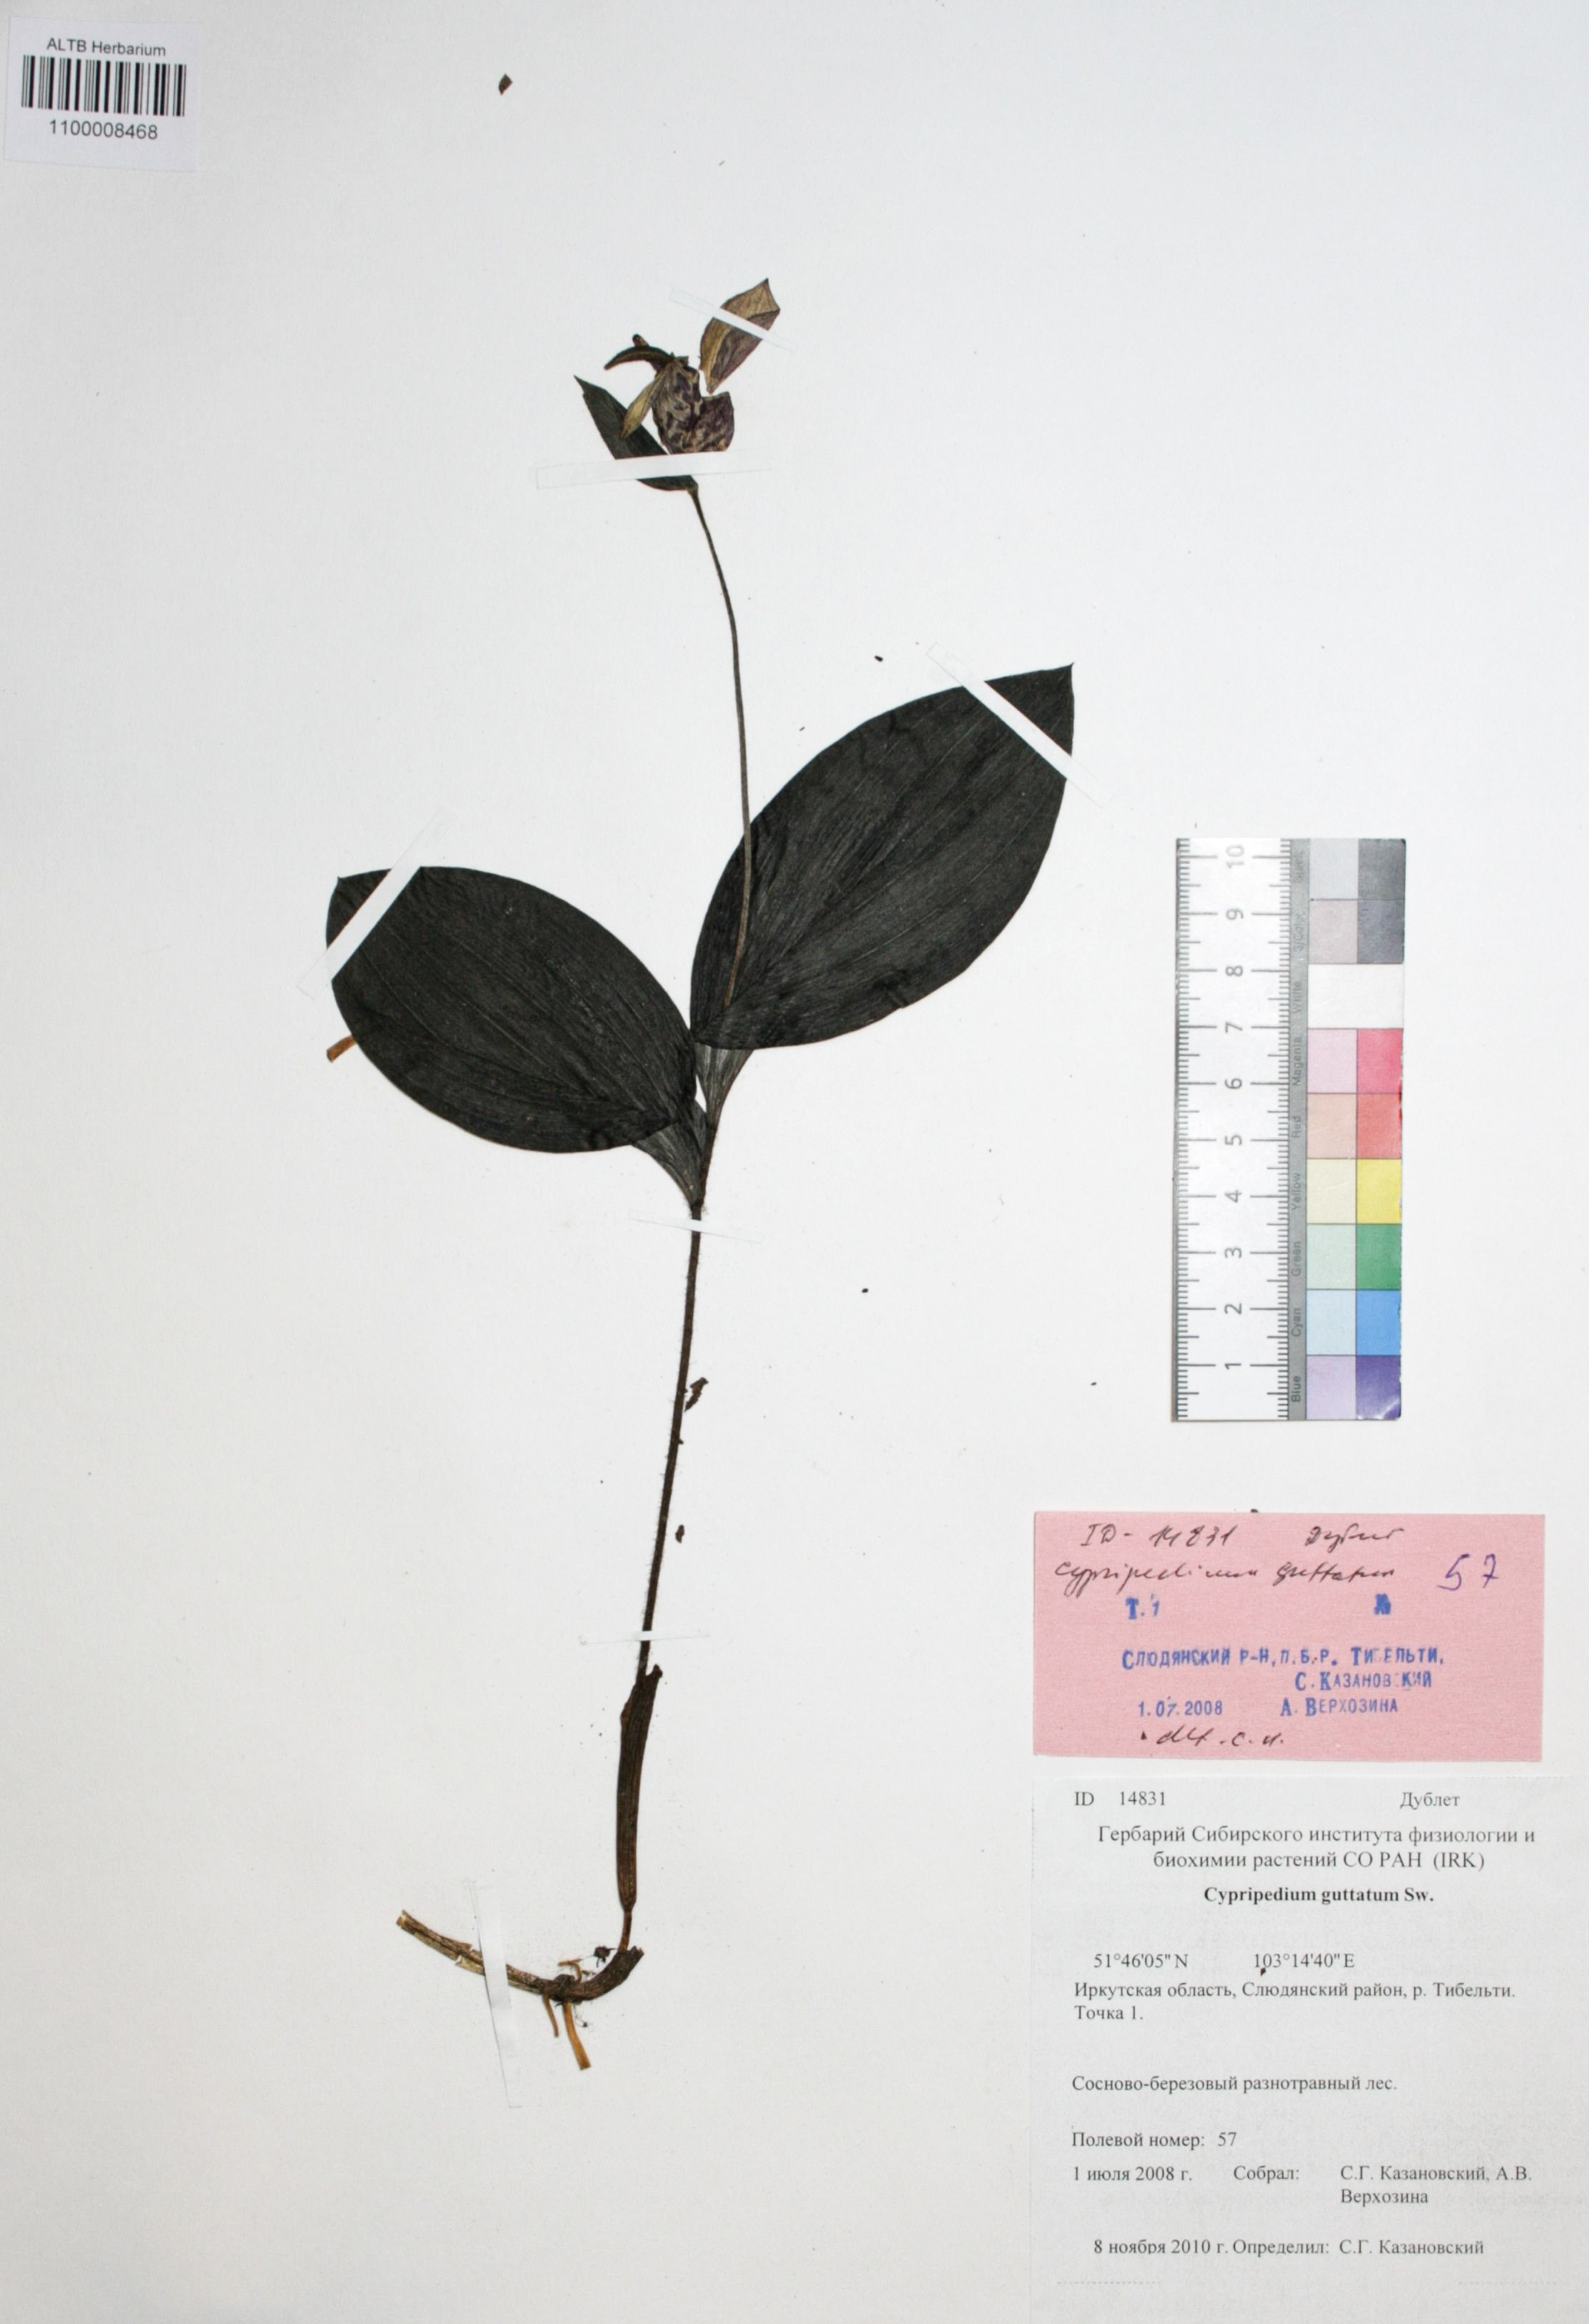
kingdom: Plantae
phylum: Tracheophyta
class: Liliopsida
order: Asparagales
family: Orchidaceae
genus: Cypripedium
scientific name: Cypripedium guttatum
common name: Pink lady slipper
